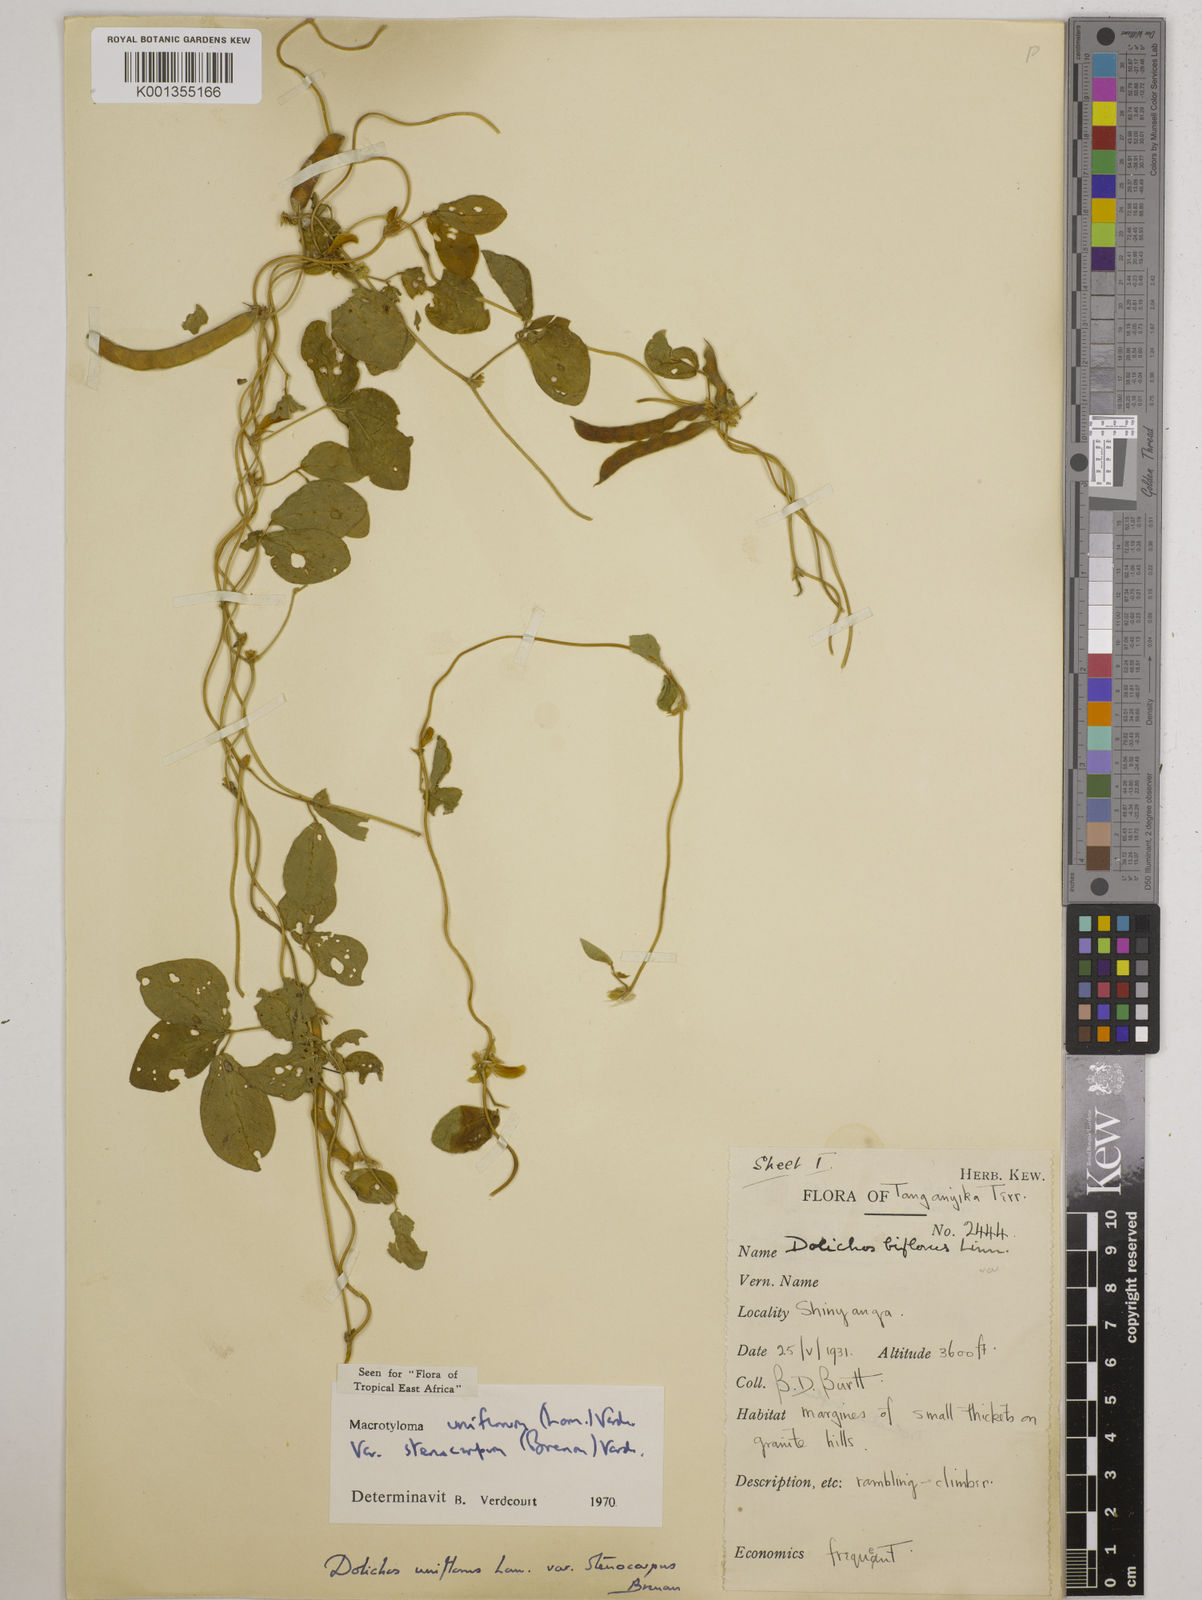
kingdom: Plantae
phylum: Tracheophyta
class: Magnoliopsida
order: Fabales
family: Fabaceae
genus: Macrotyloma
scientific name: Macrotyloma
